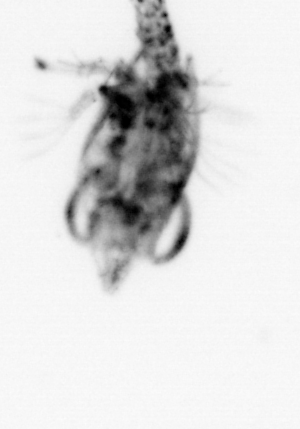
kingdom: Animalia
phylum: Arthropoda
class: Malacostraca
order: Decapoda
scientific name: Decapoda
